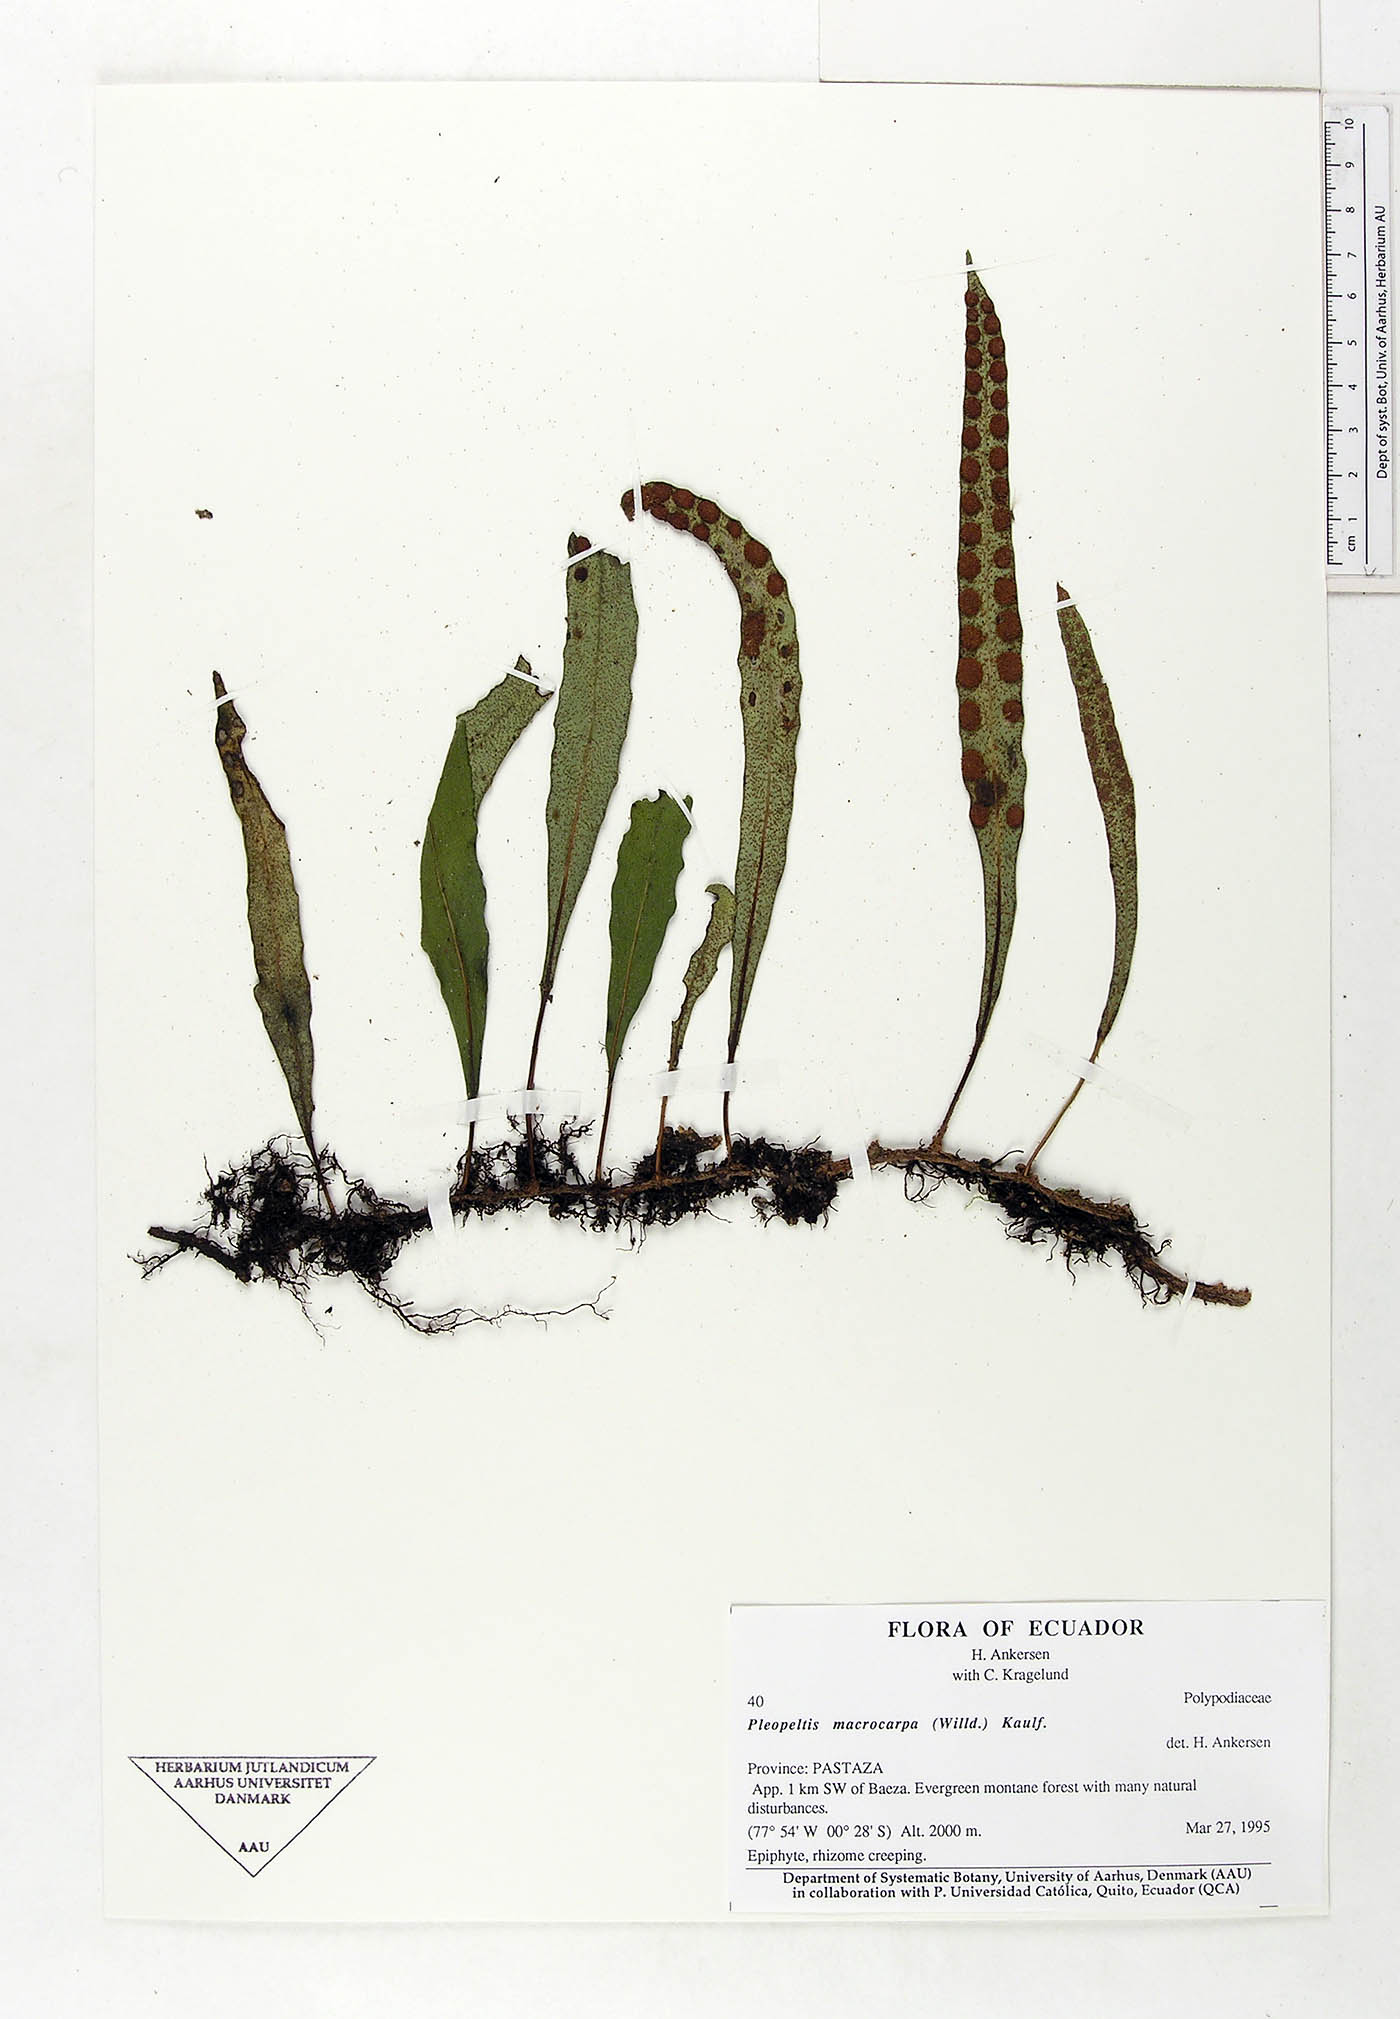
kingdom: Plantae
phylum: Tracheophyta
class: Polypodiopsida
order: Polypodiales
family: Polypodiaceae
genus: Pleopeltis
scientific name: Pleopeltis macrocarpa
